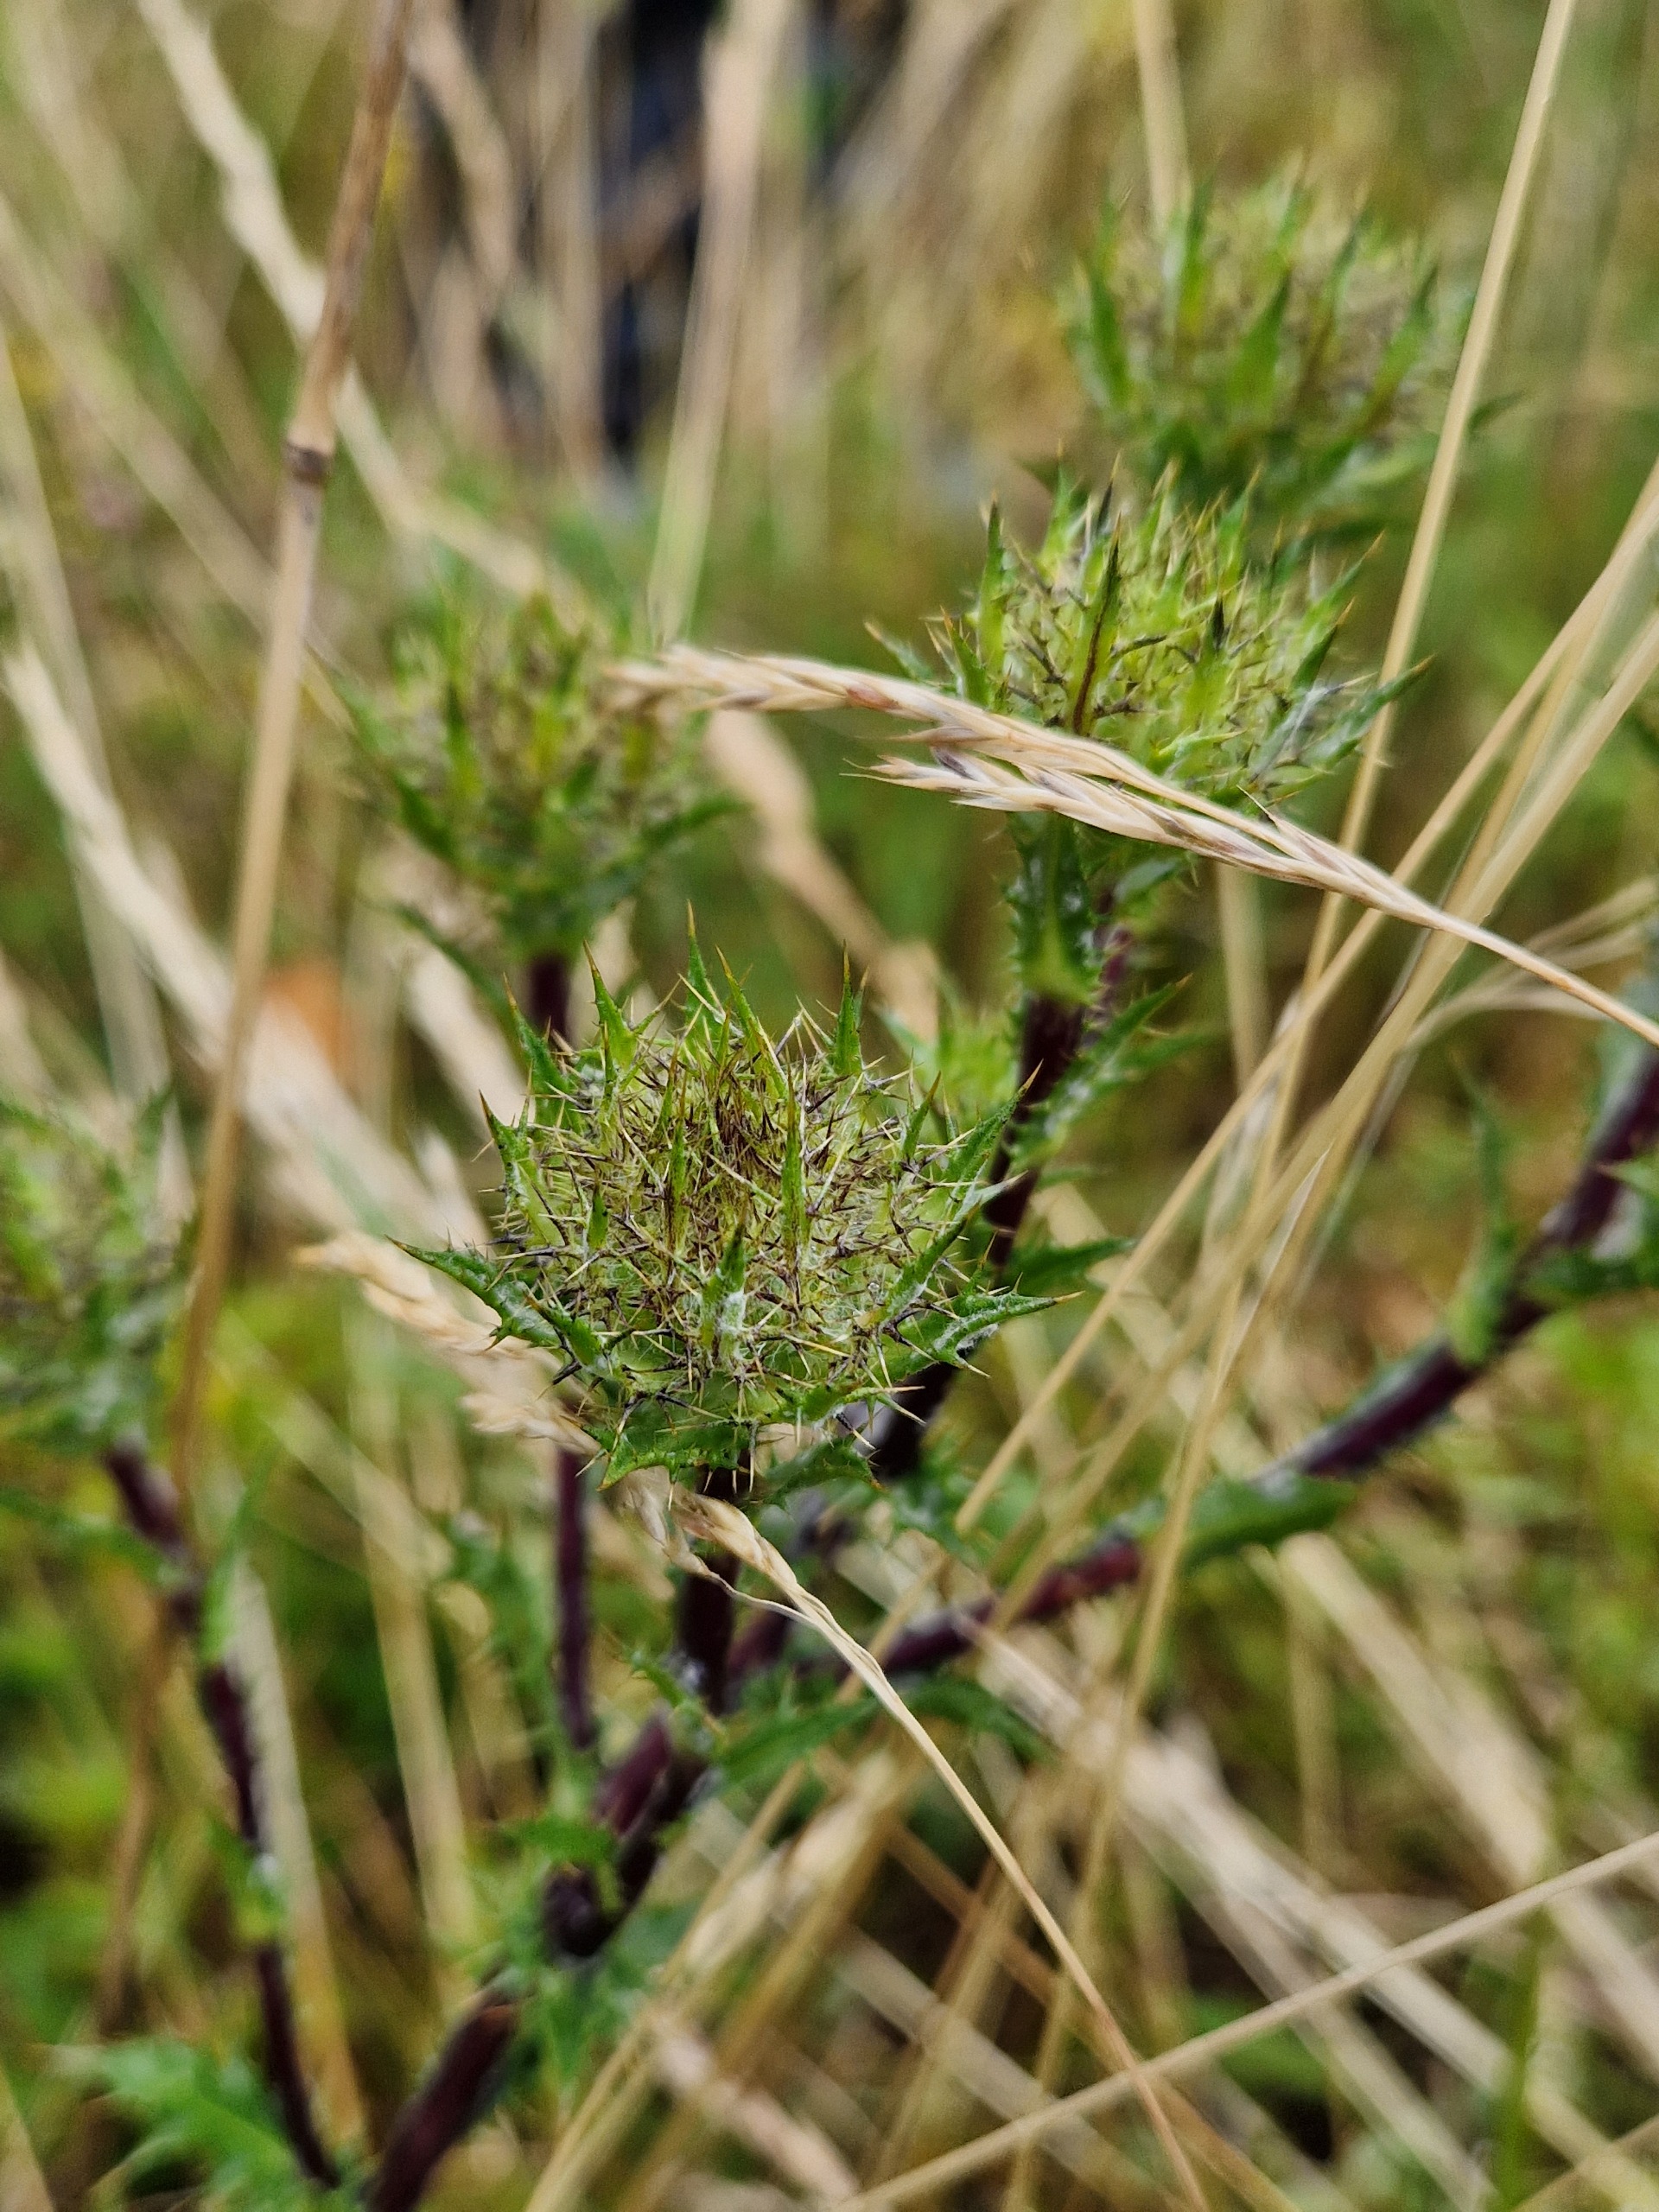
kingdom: Plantae
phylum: Tracheophyta
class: Magnoliopsida
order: Asterales
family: Asteraceae
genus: Carlina
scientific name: Carlina vulgaris
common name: Bakketidsel
